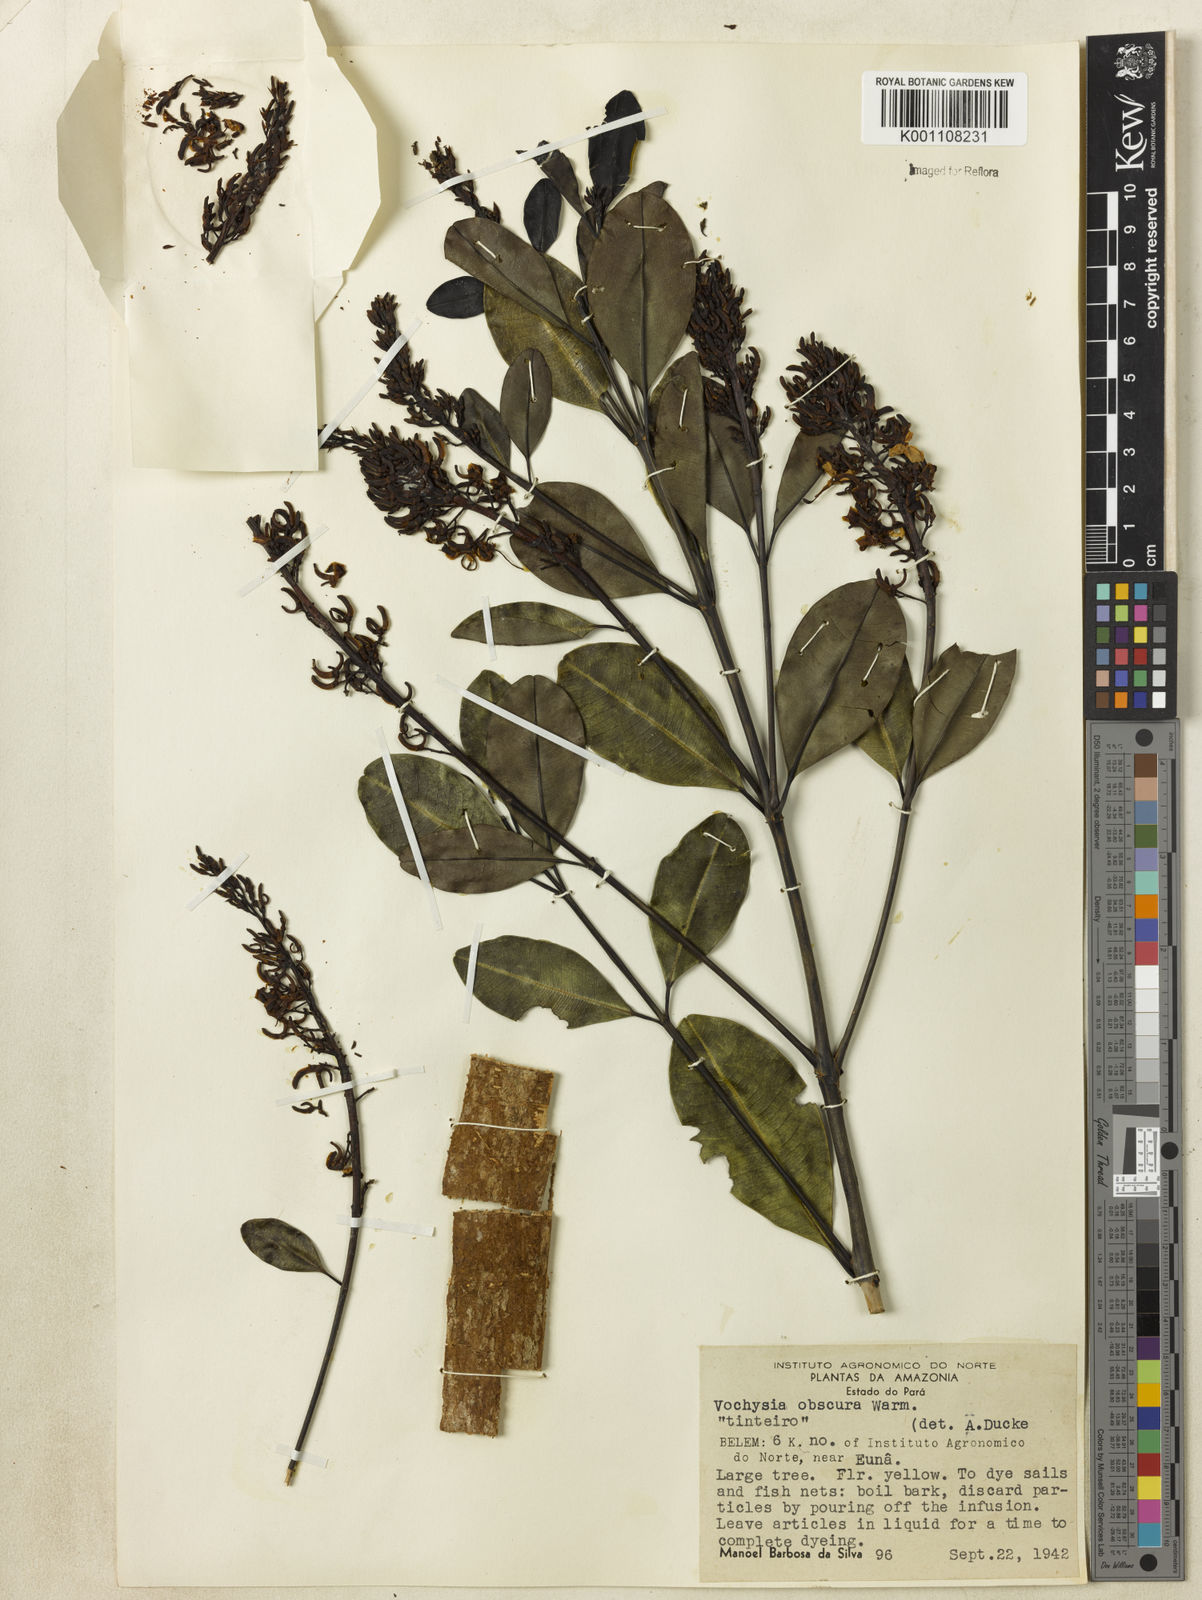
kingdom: Plantae
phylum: Tracheophyta
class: Magnoliopsida
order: Myrtales
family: Vochysiaceae
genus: Vochysia
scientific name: Vochysia obscura
